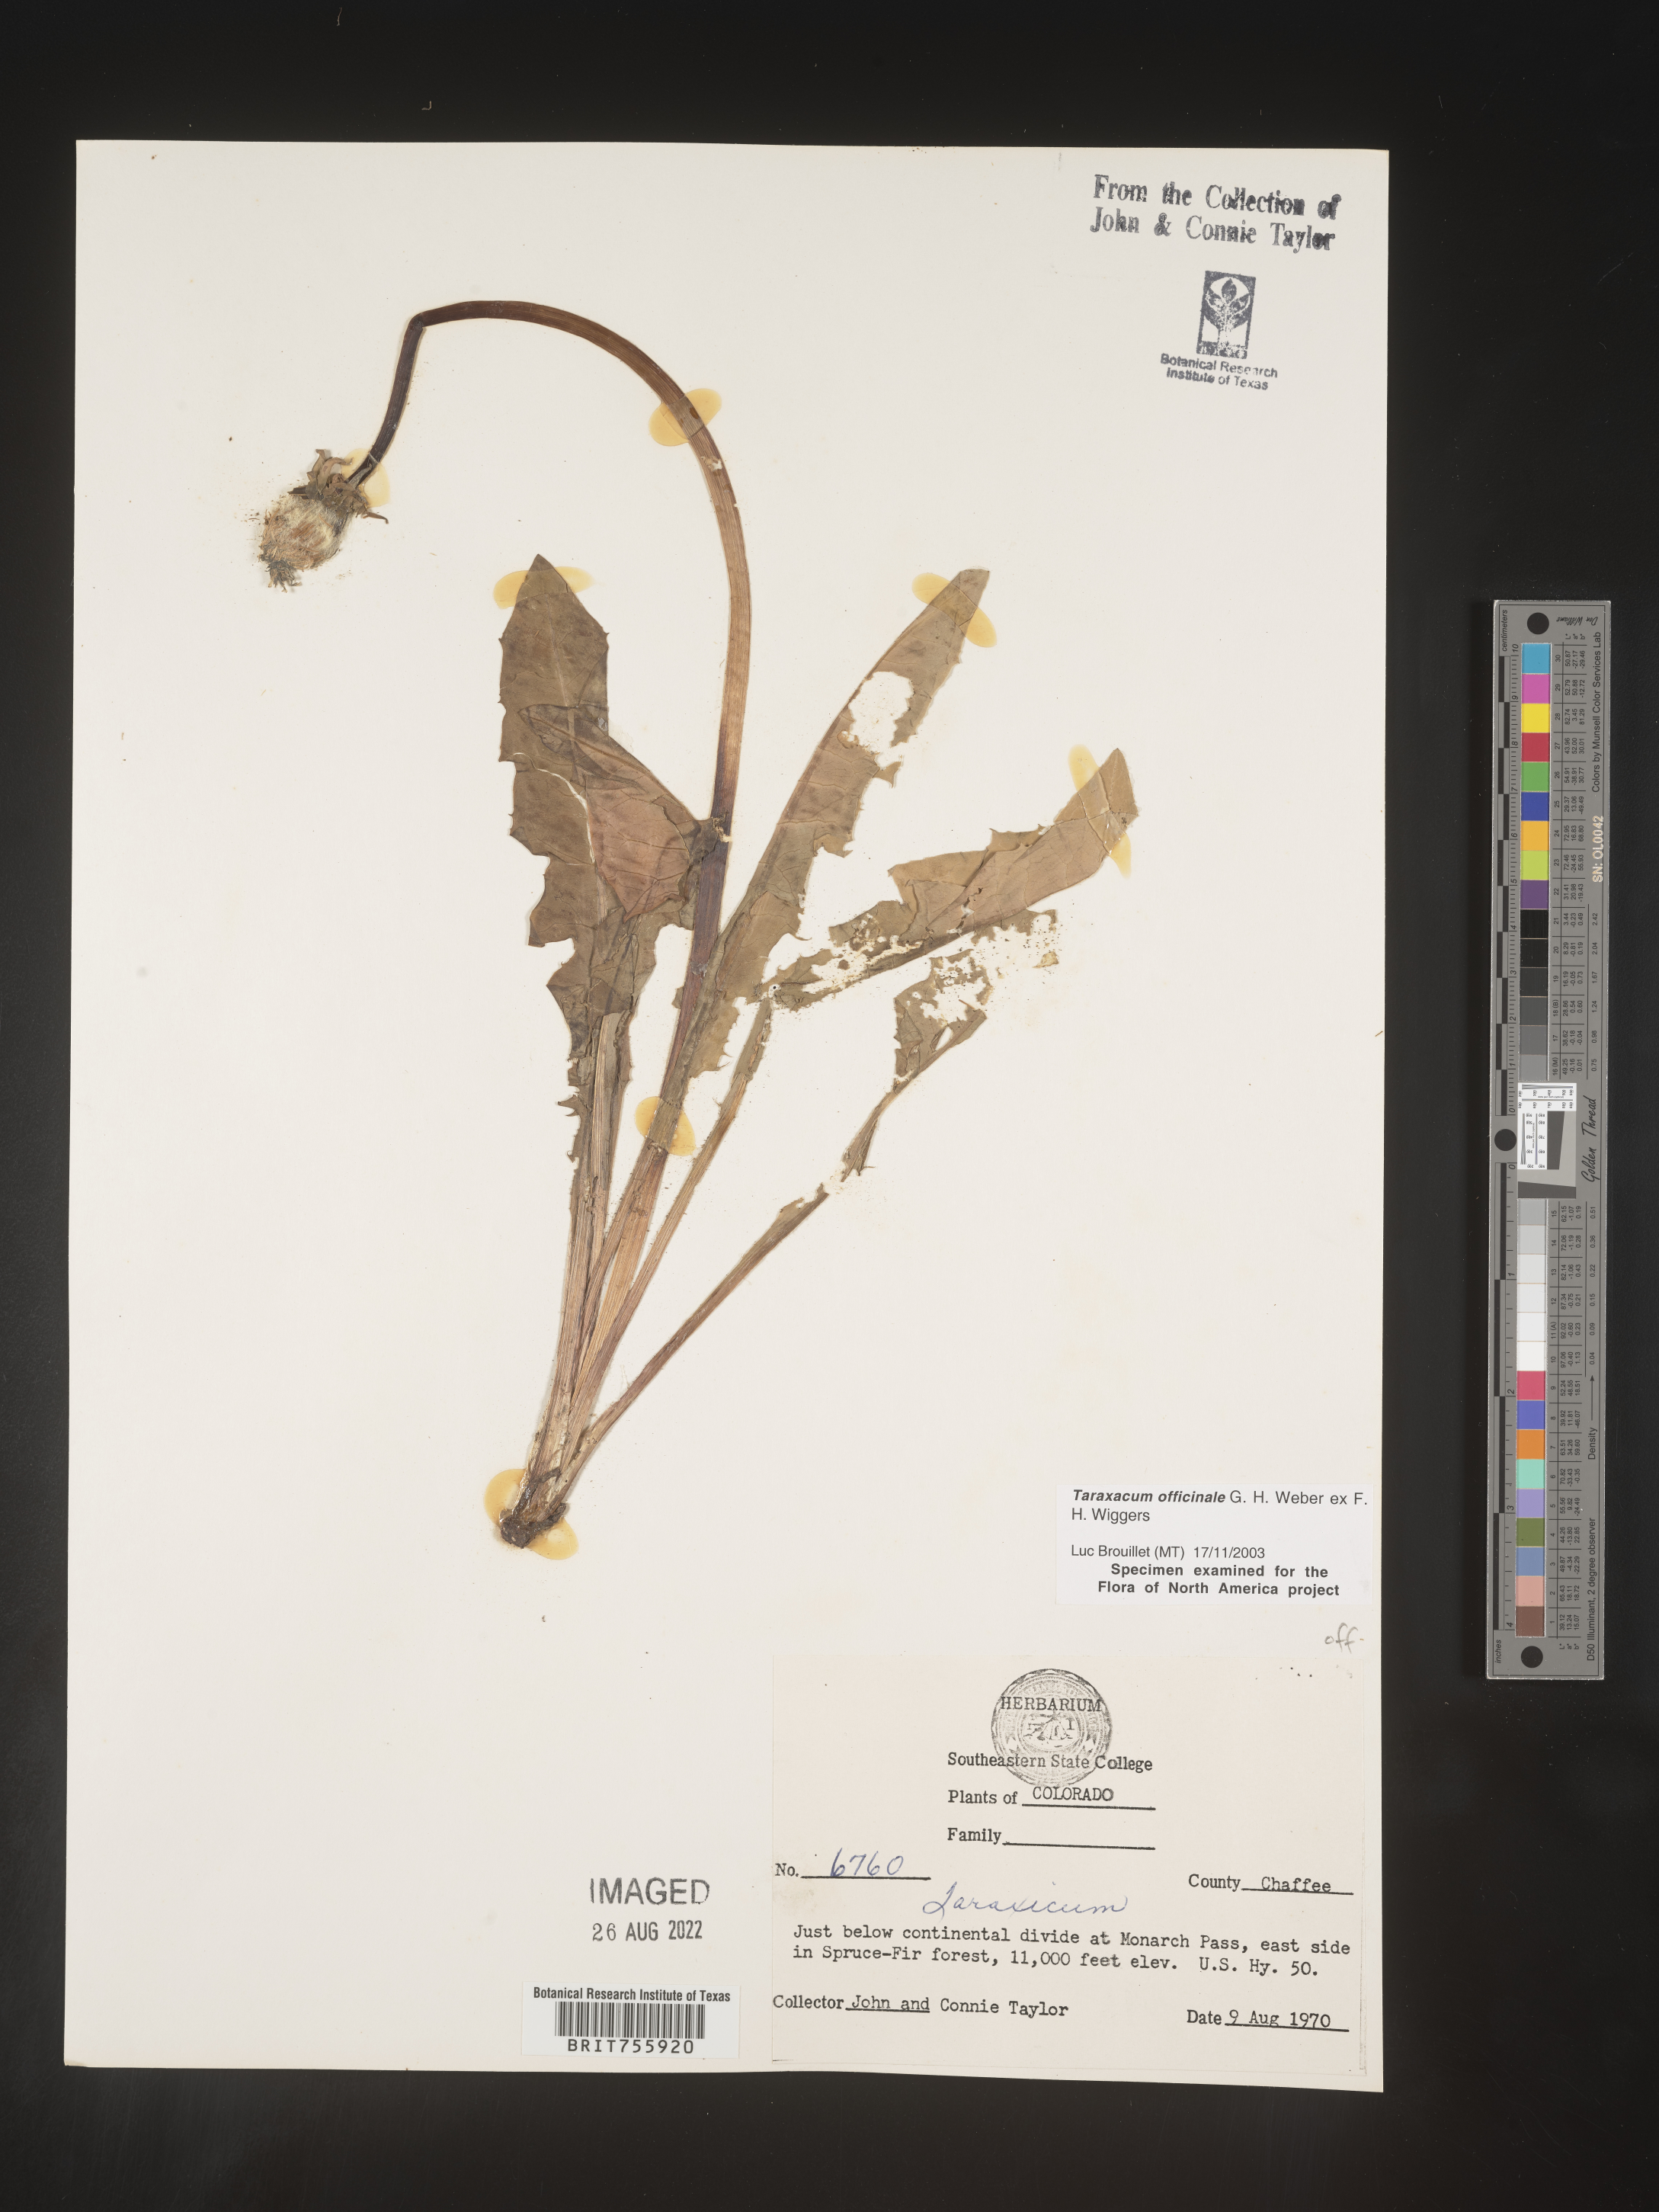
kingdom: Plantae
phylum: Tracheophyta
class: Magnoliopsida
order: Asterales
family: Asteraceae
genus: Taraxacum
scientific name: Taraxacum officinale
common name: Common dandelion
